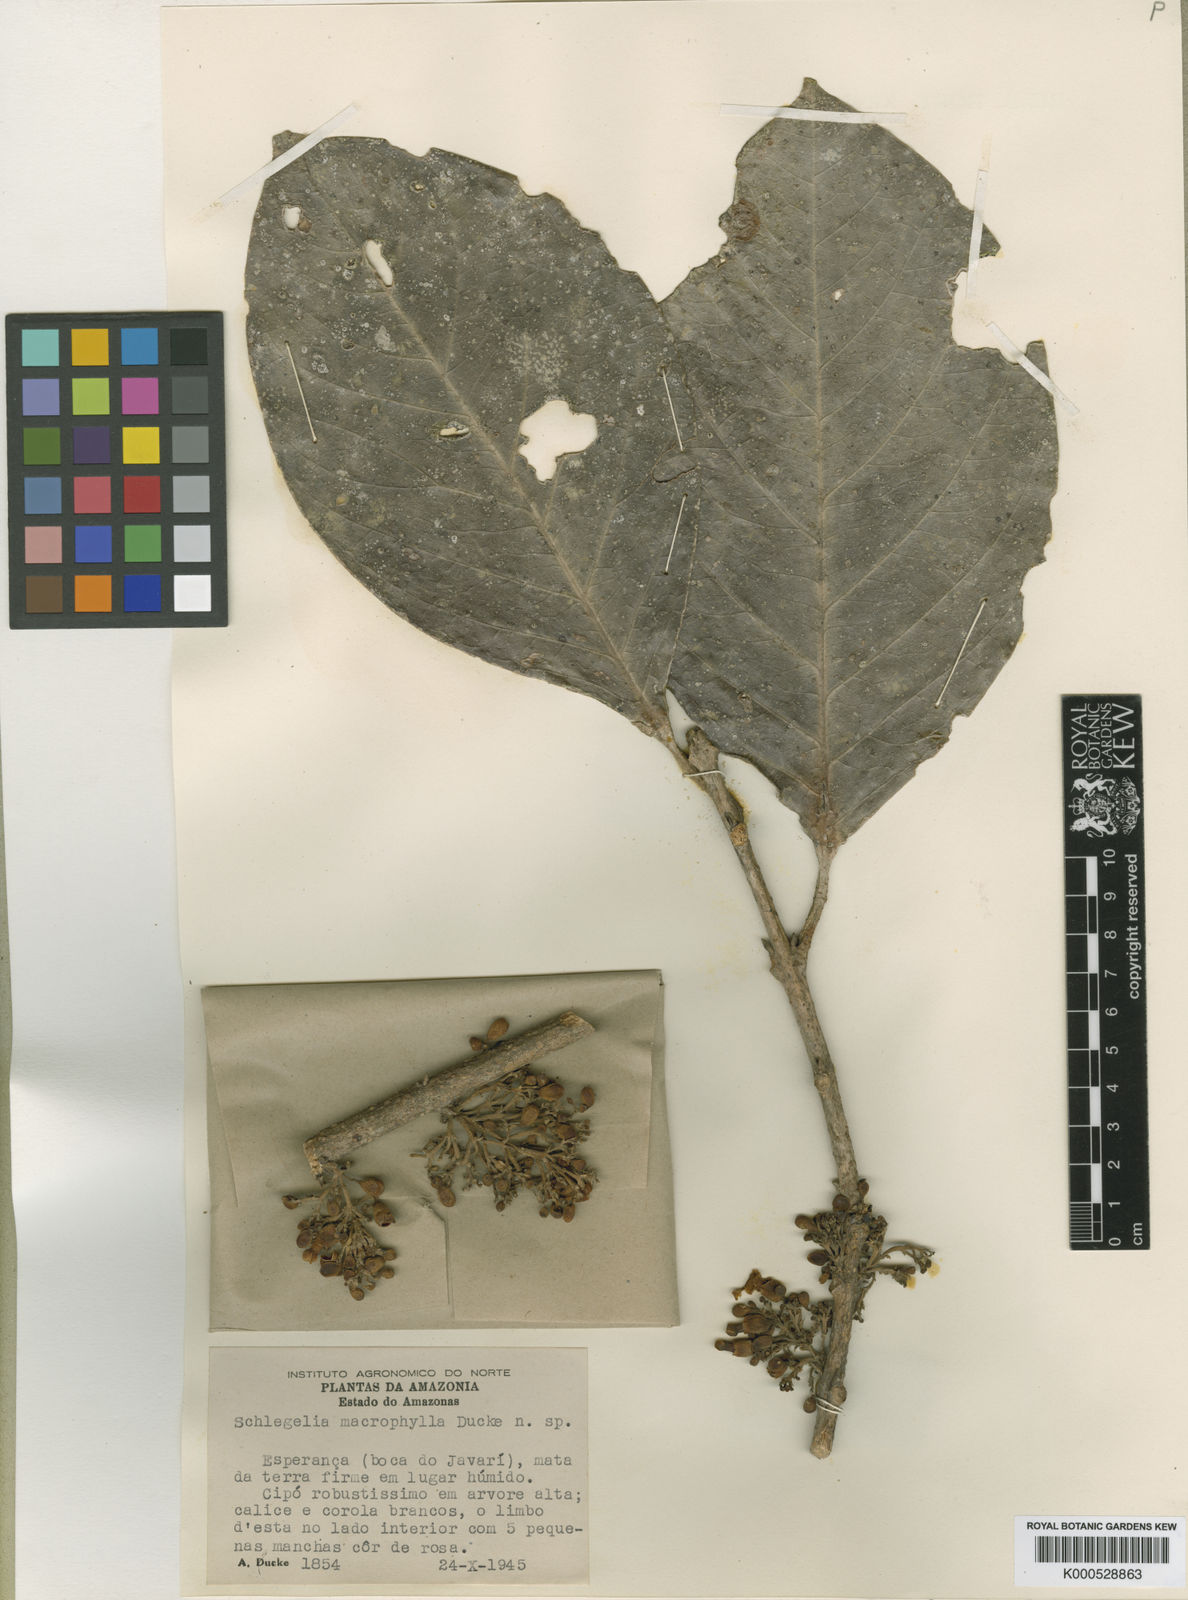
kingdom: Plantae
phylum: Tracheophyta
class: Magnoliopsida
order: Lamiales
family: Schlegeliaceae
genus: Schlegelia
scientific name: Schlegelia macrophylla
